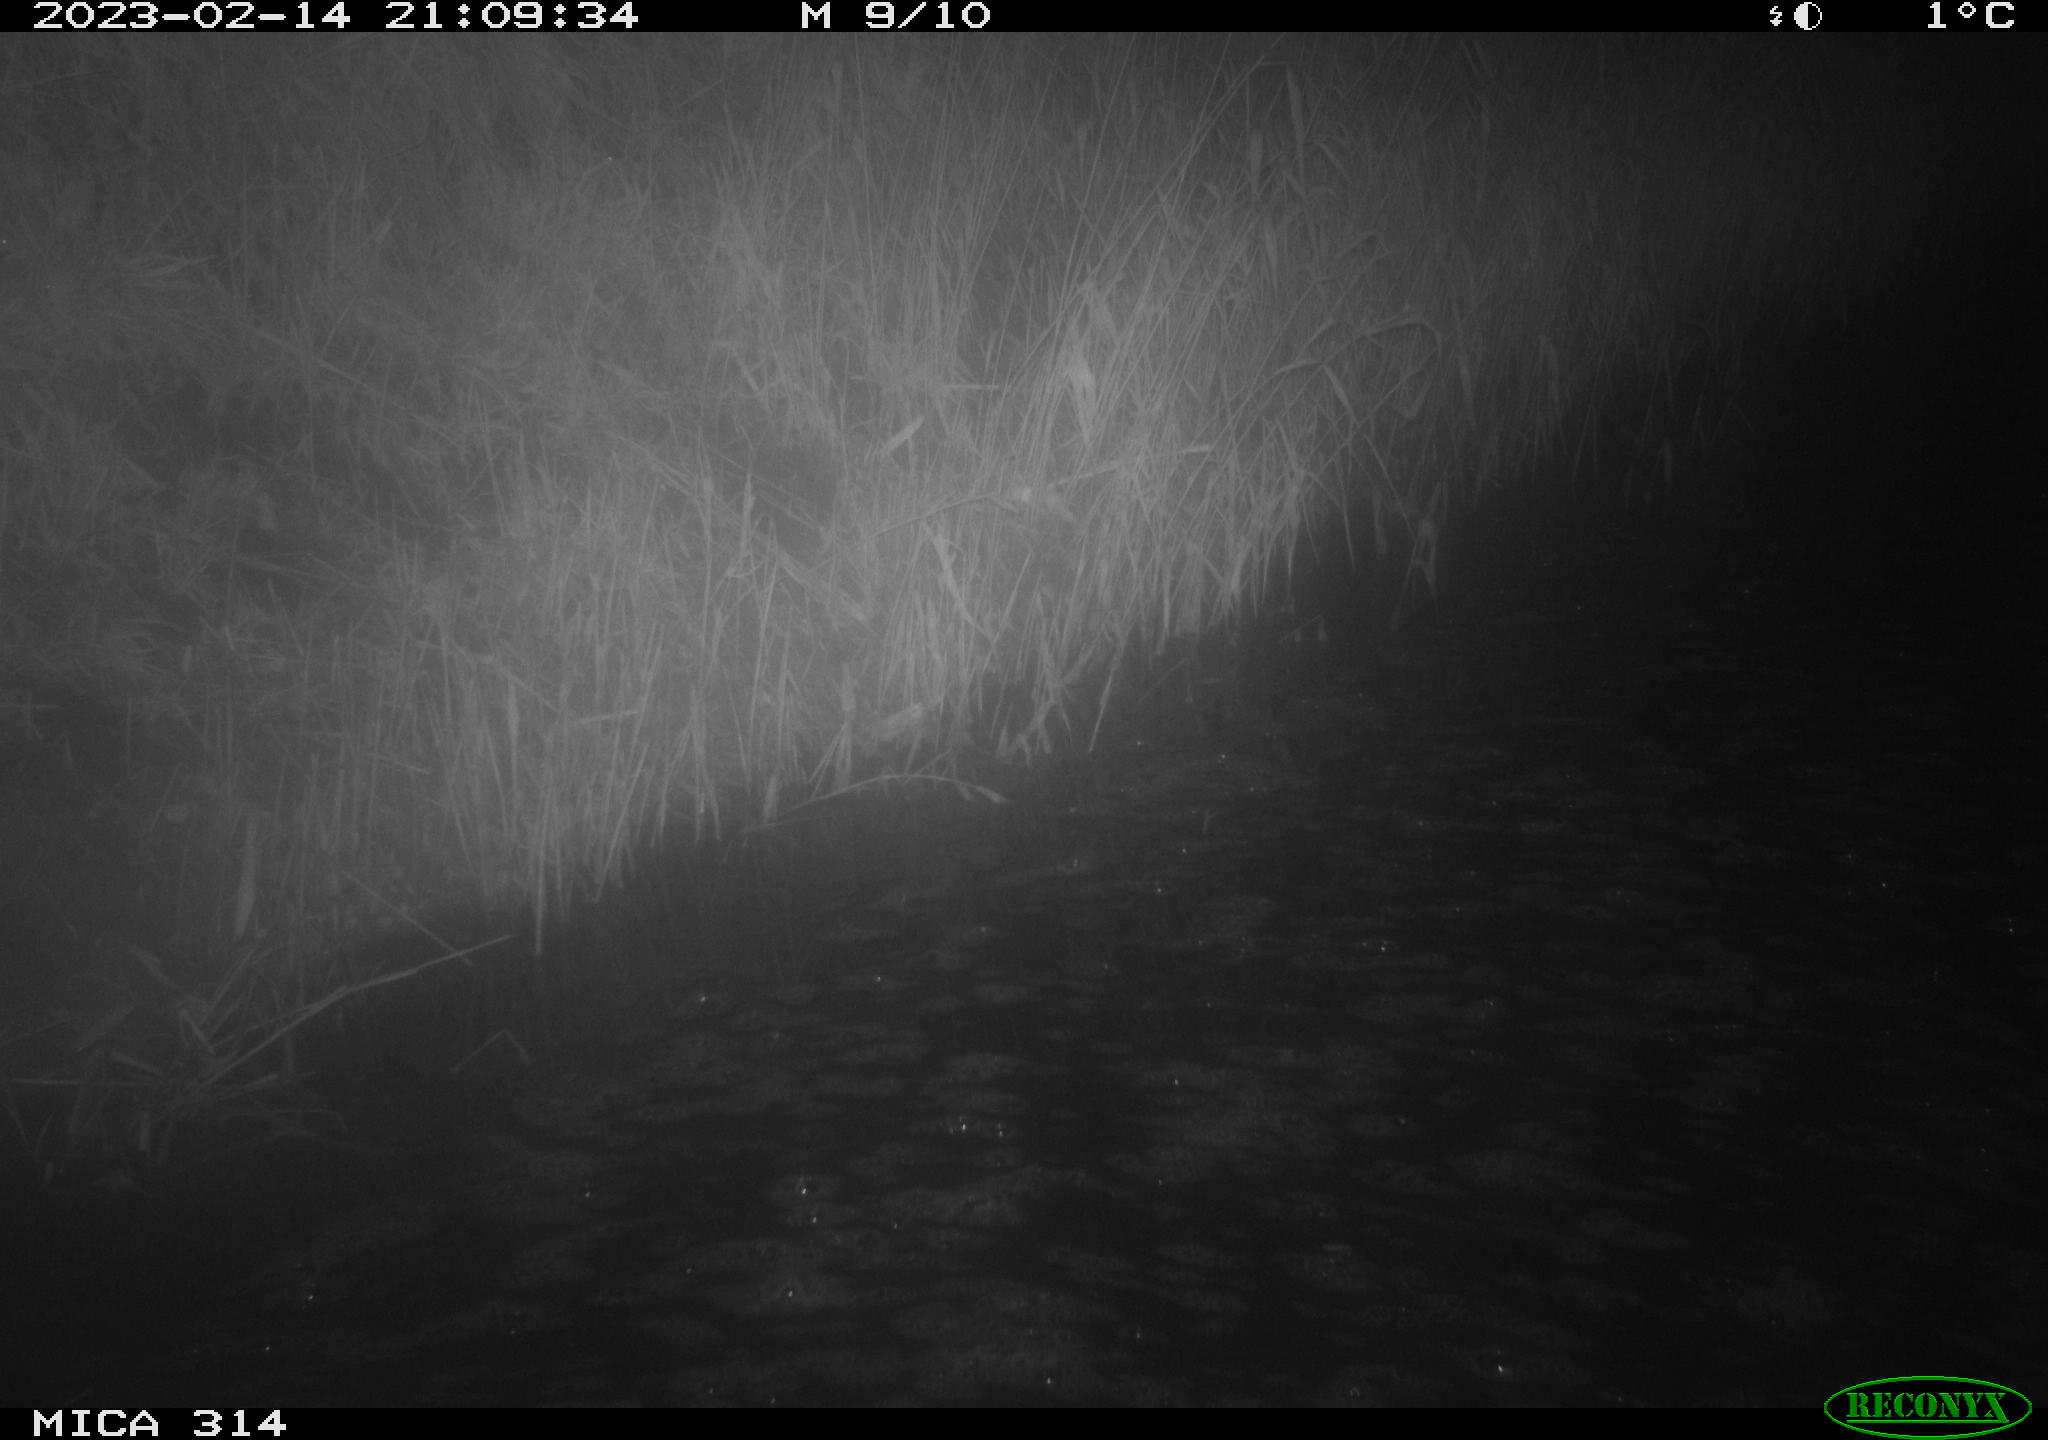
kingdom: Animalia
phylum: Chordata
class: Mammalia
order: Rodentia
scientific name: Rodentia
